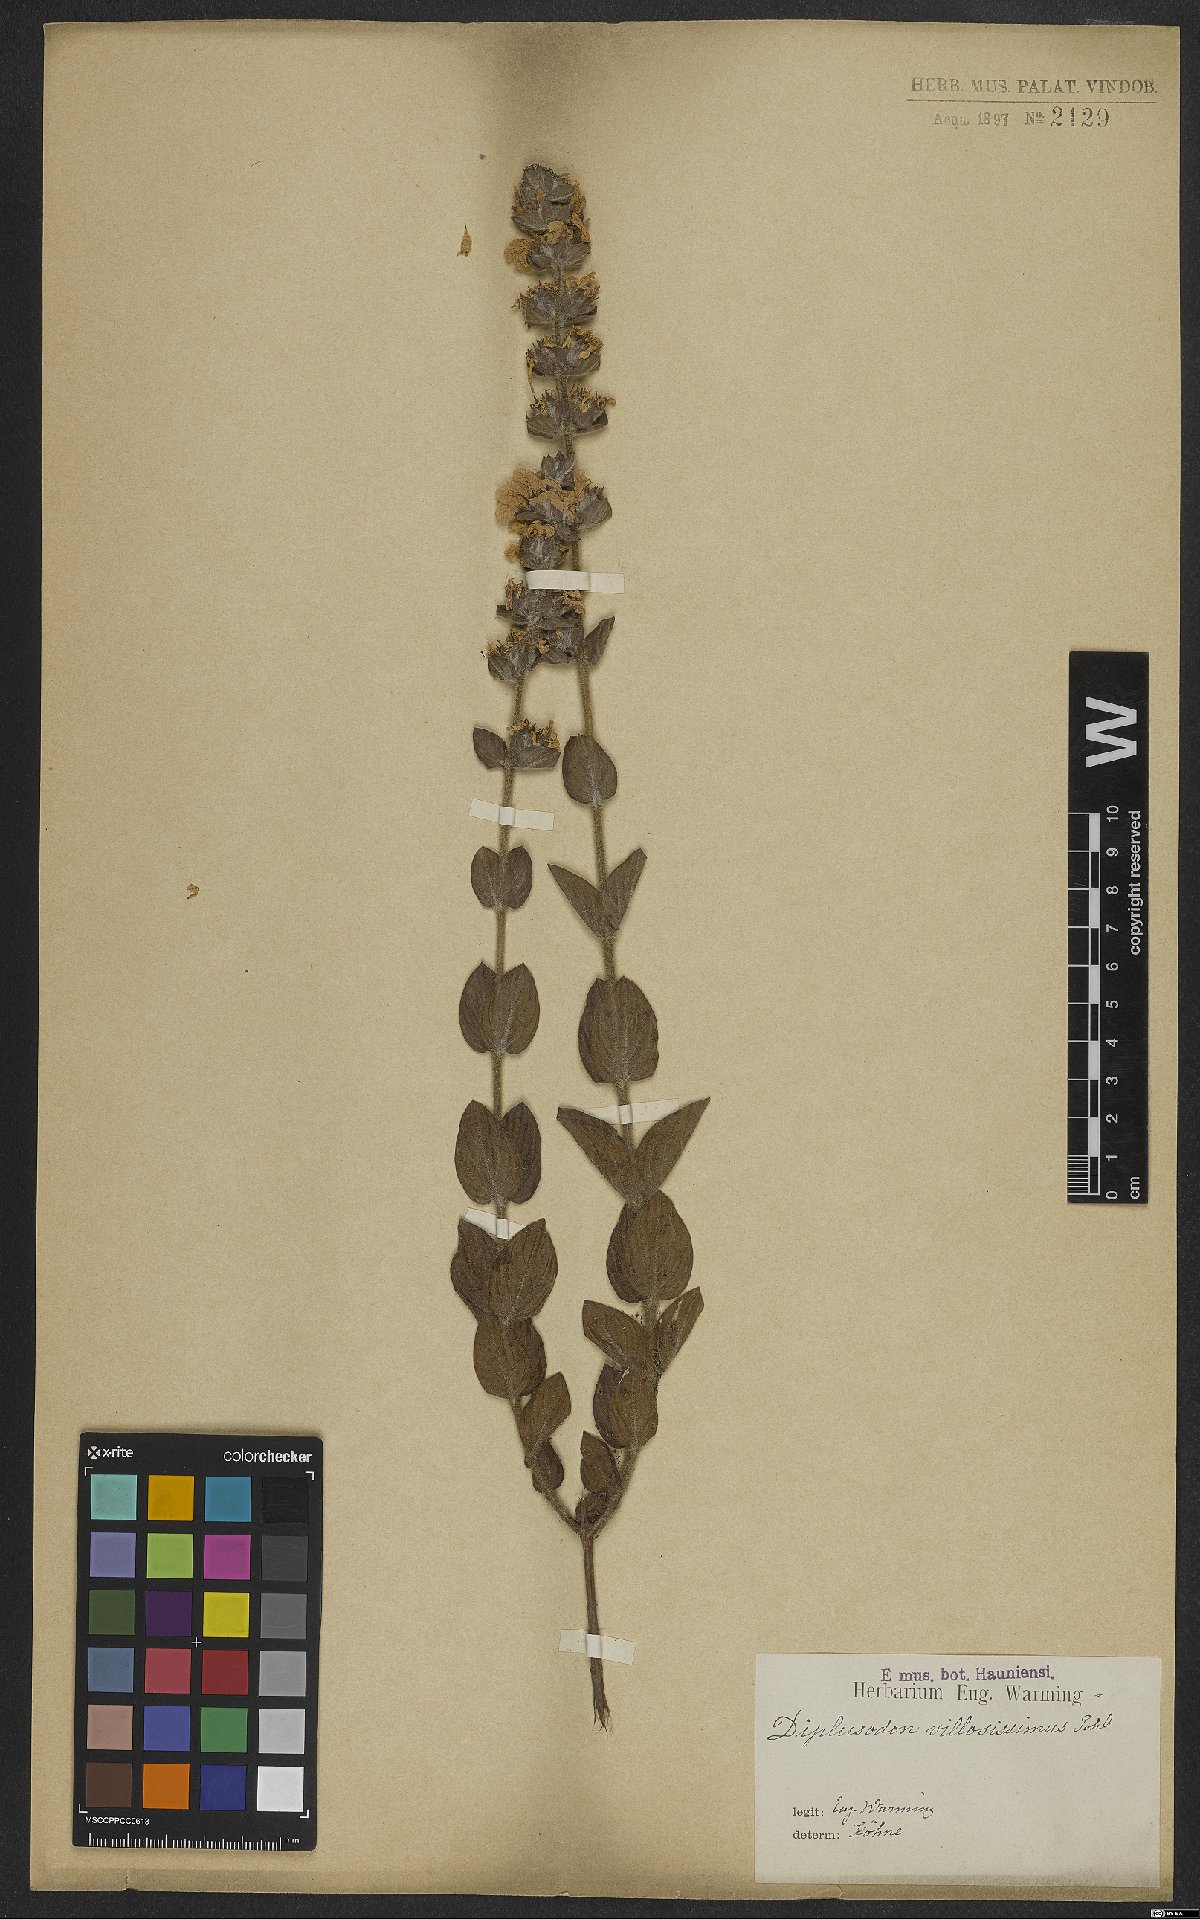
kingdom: Plantae
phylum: Tracheophyta
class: Magnoliopsida
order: Myrtales
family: Lythraceae
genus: Diplusodon
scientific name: Diplusodon villosissimus
